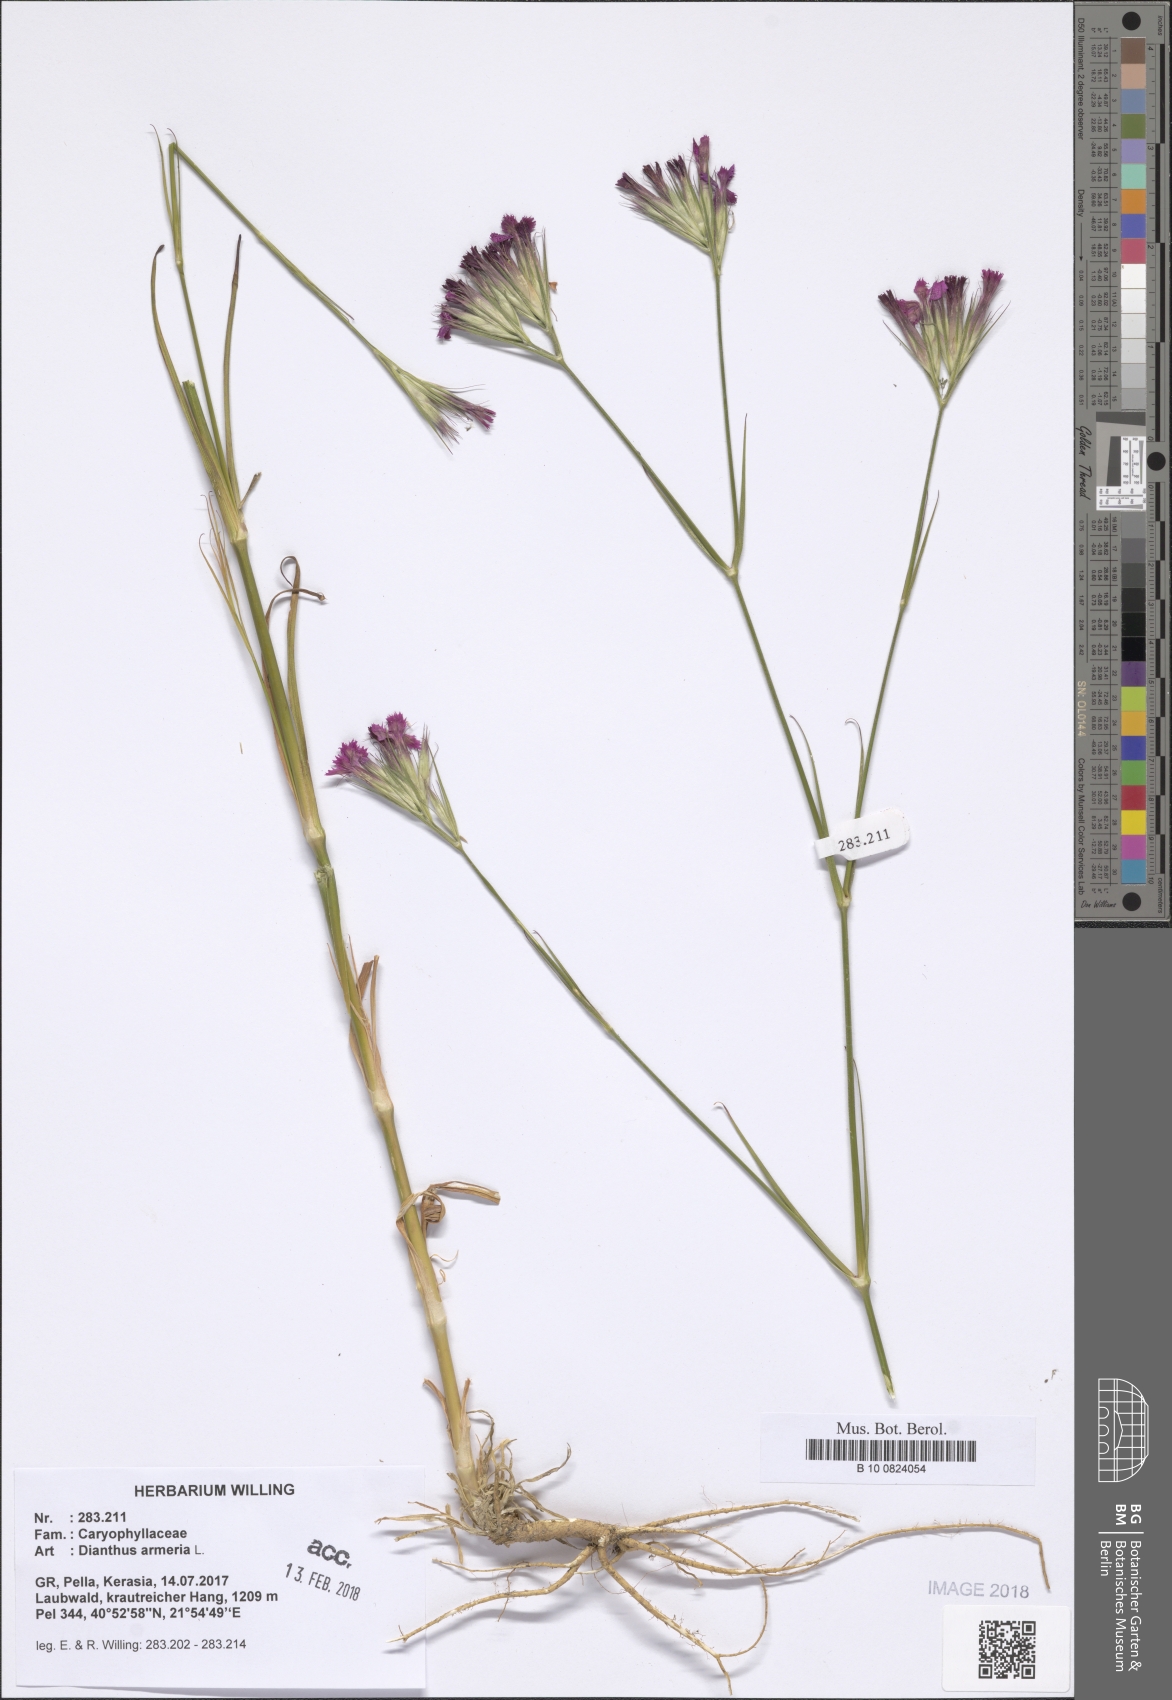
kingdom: Plantae
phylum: Tracheophyta
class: Magnoliopsida
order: Caryophyllales
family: Caryophyllaceae
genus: Dianthus
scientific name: Dianthus armeria
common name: Deptford pink
